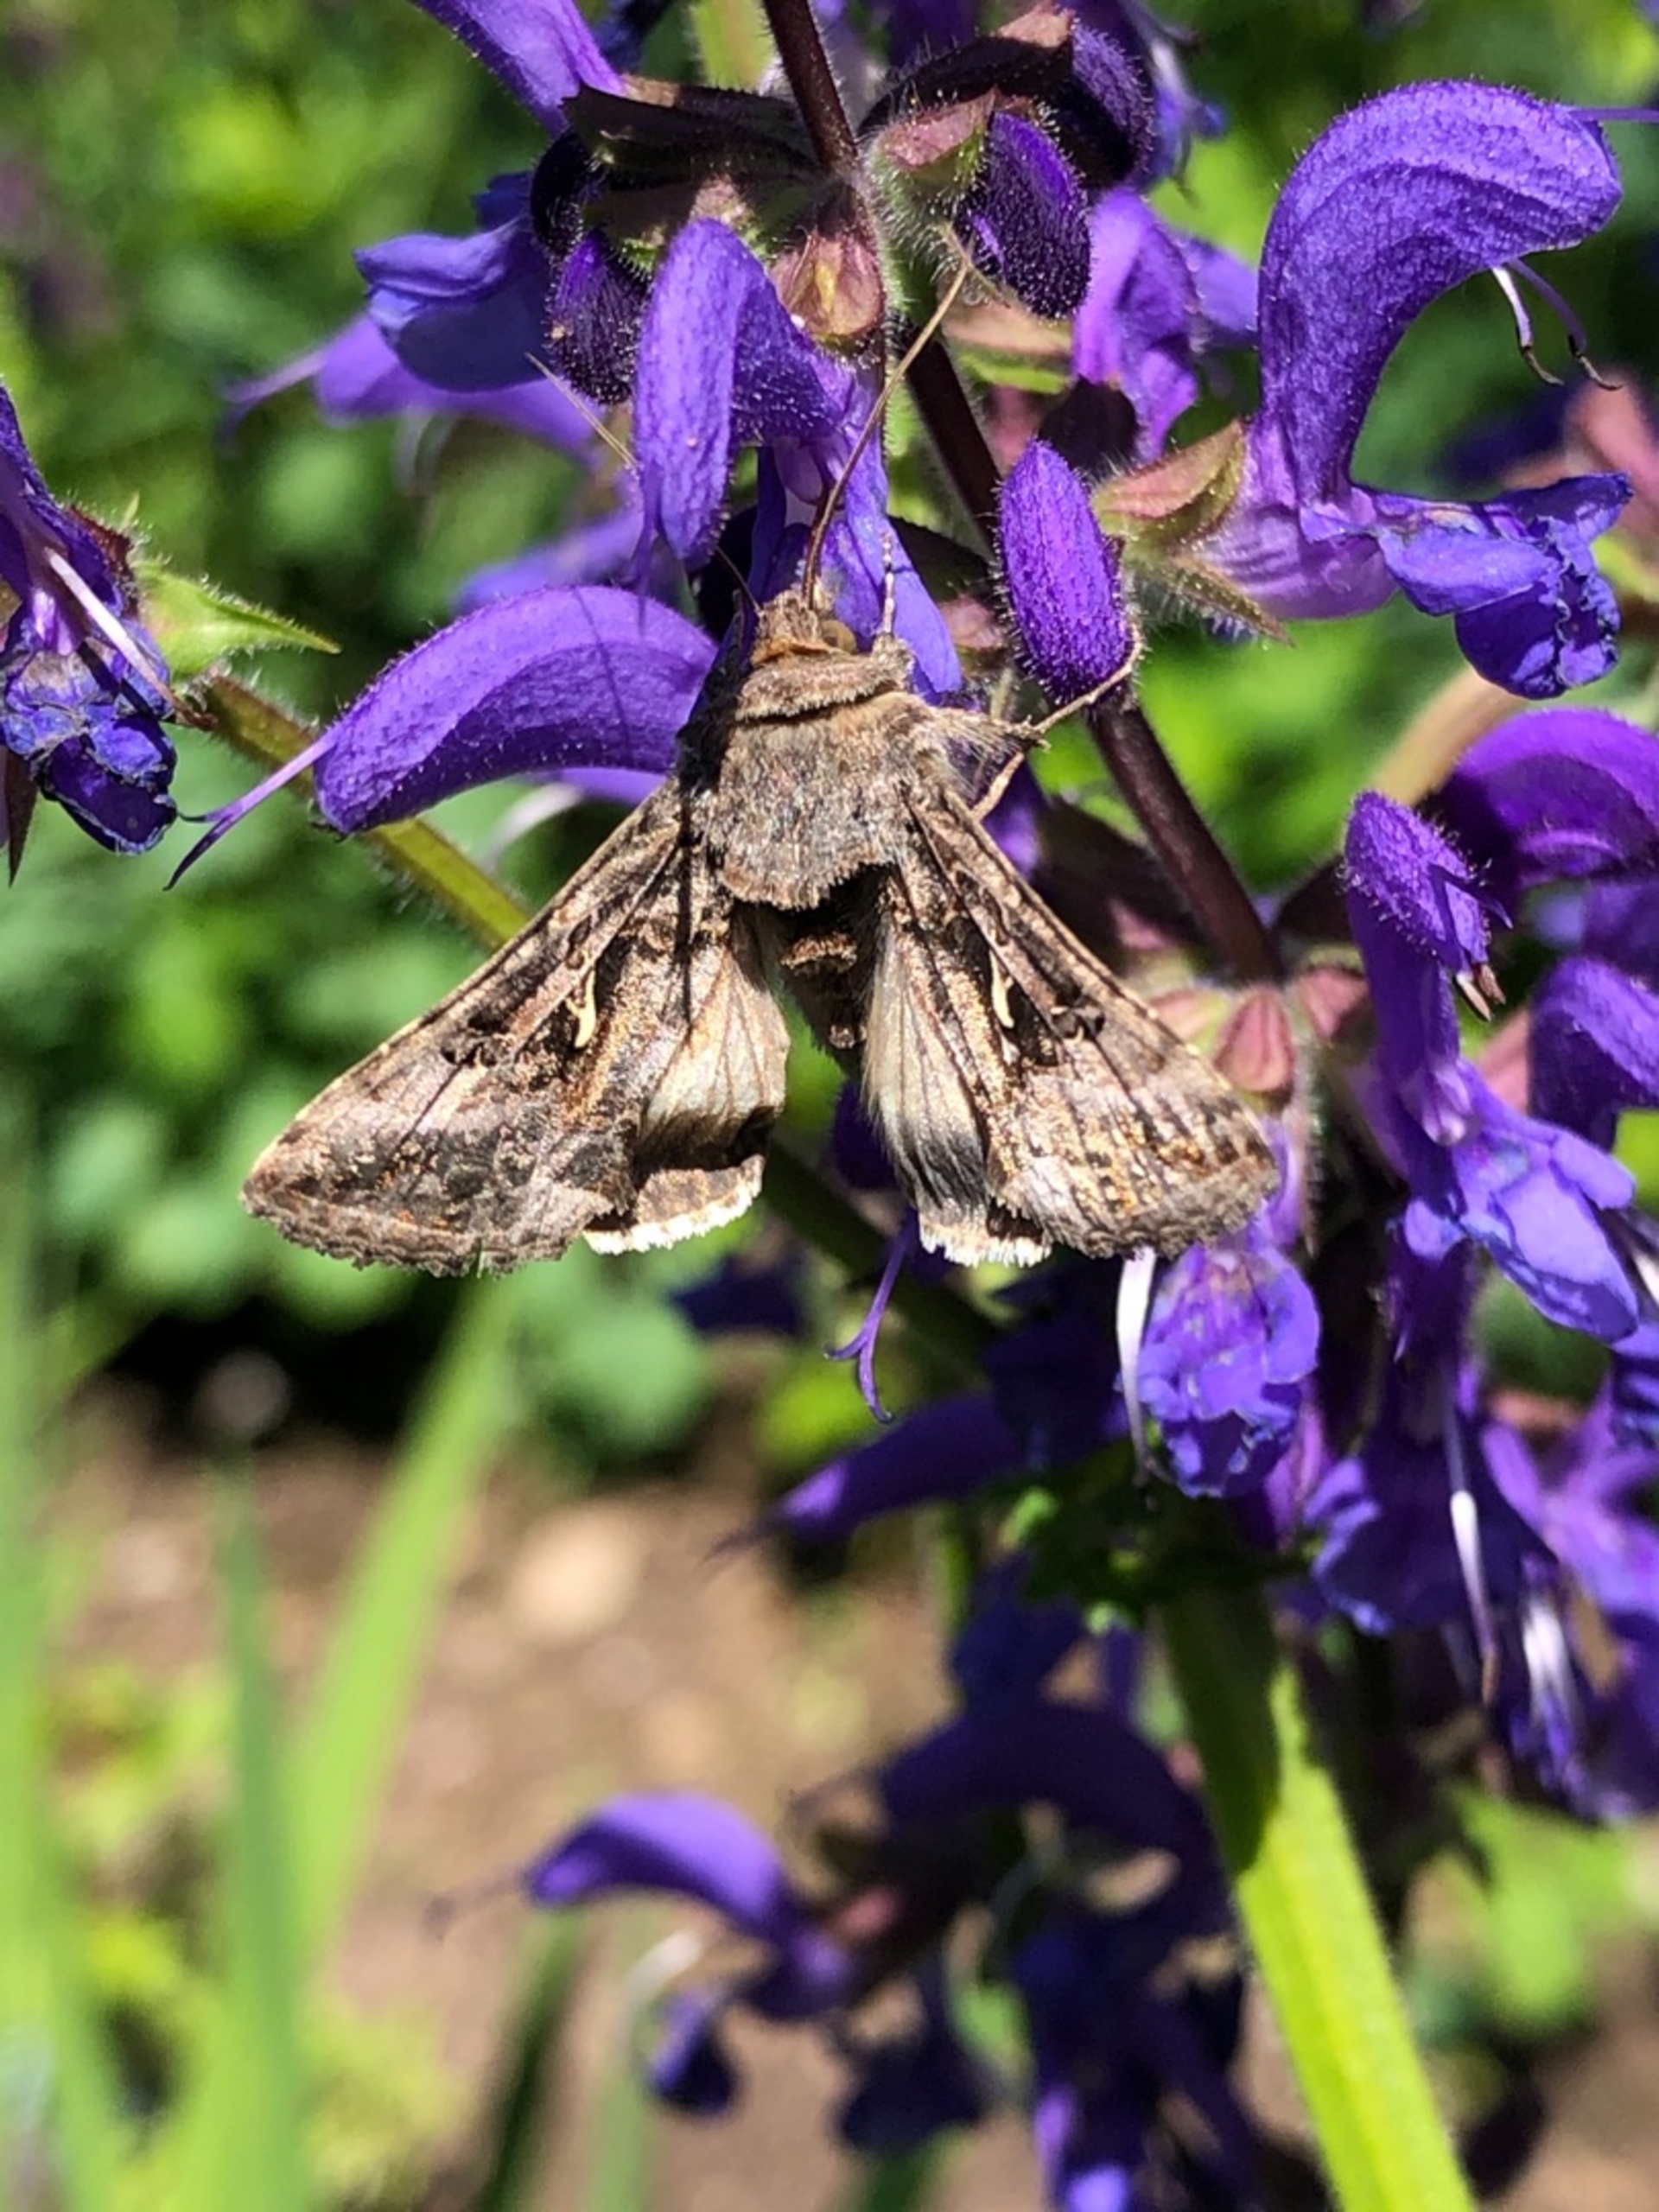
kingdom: Animalia
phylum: Arthropoda
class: Insecta
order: Lepidoptera
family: Noctuidae
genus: Autographa
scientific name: Autographa gamma
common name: Gammaugle
